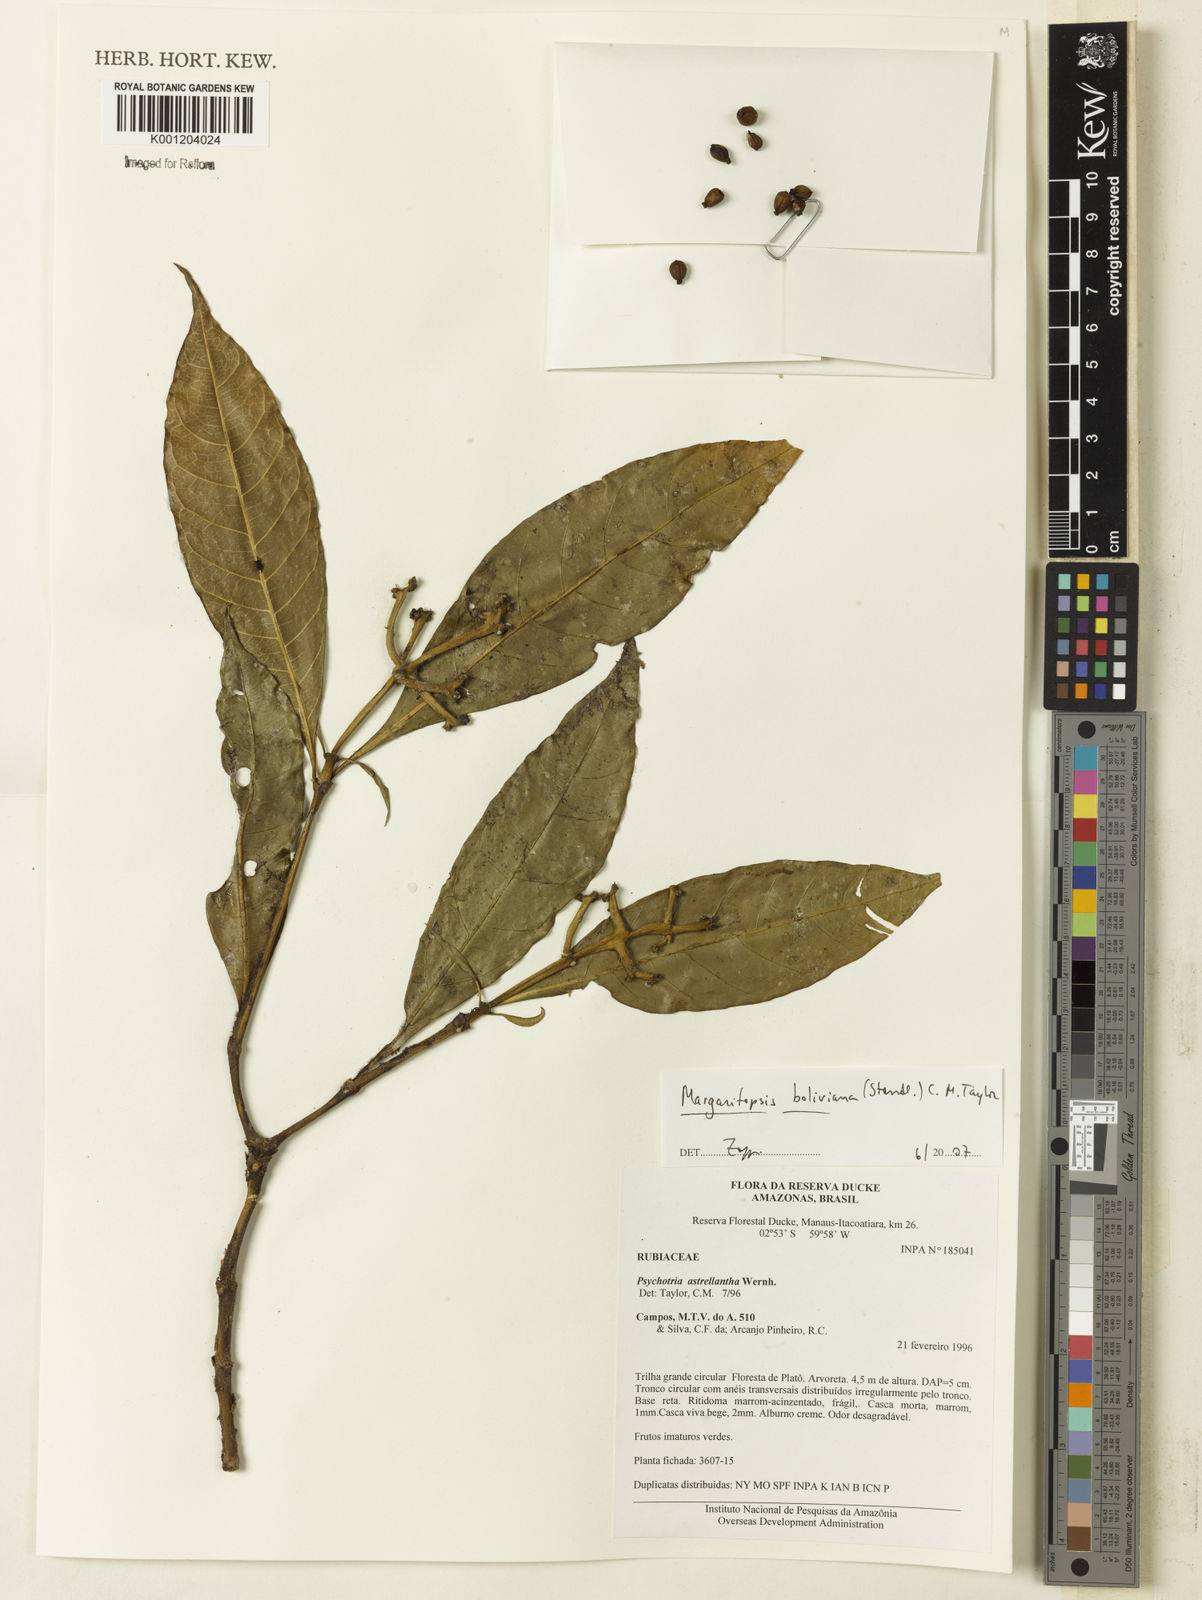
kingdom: Plantae
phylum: Tracheophyta
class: Magnoliopsida
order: Gentianales
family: Rubiaceae
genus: Eumachia
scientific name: Eumachia boliviana
